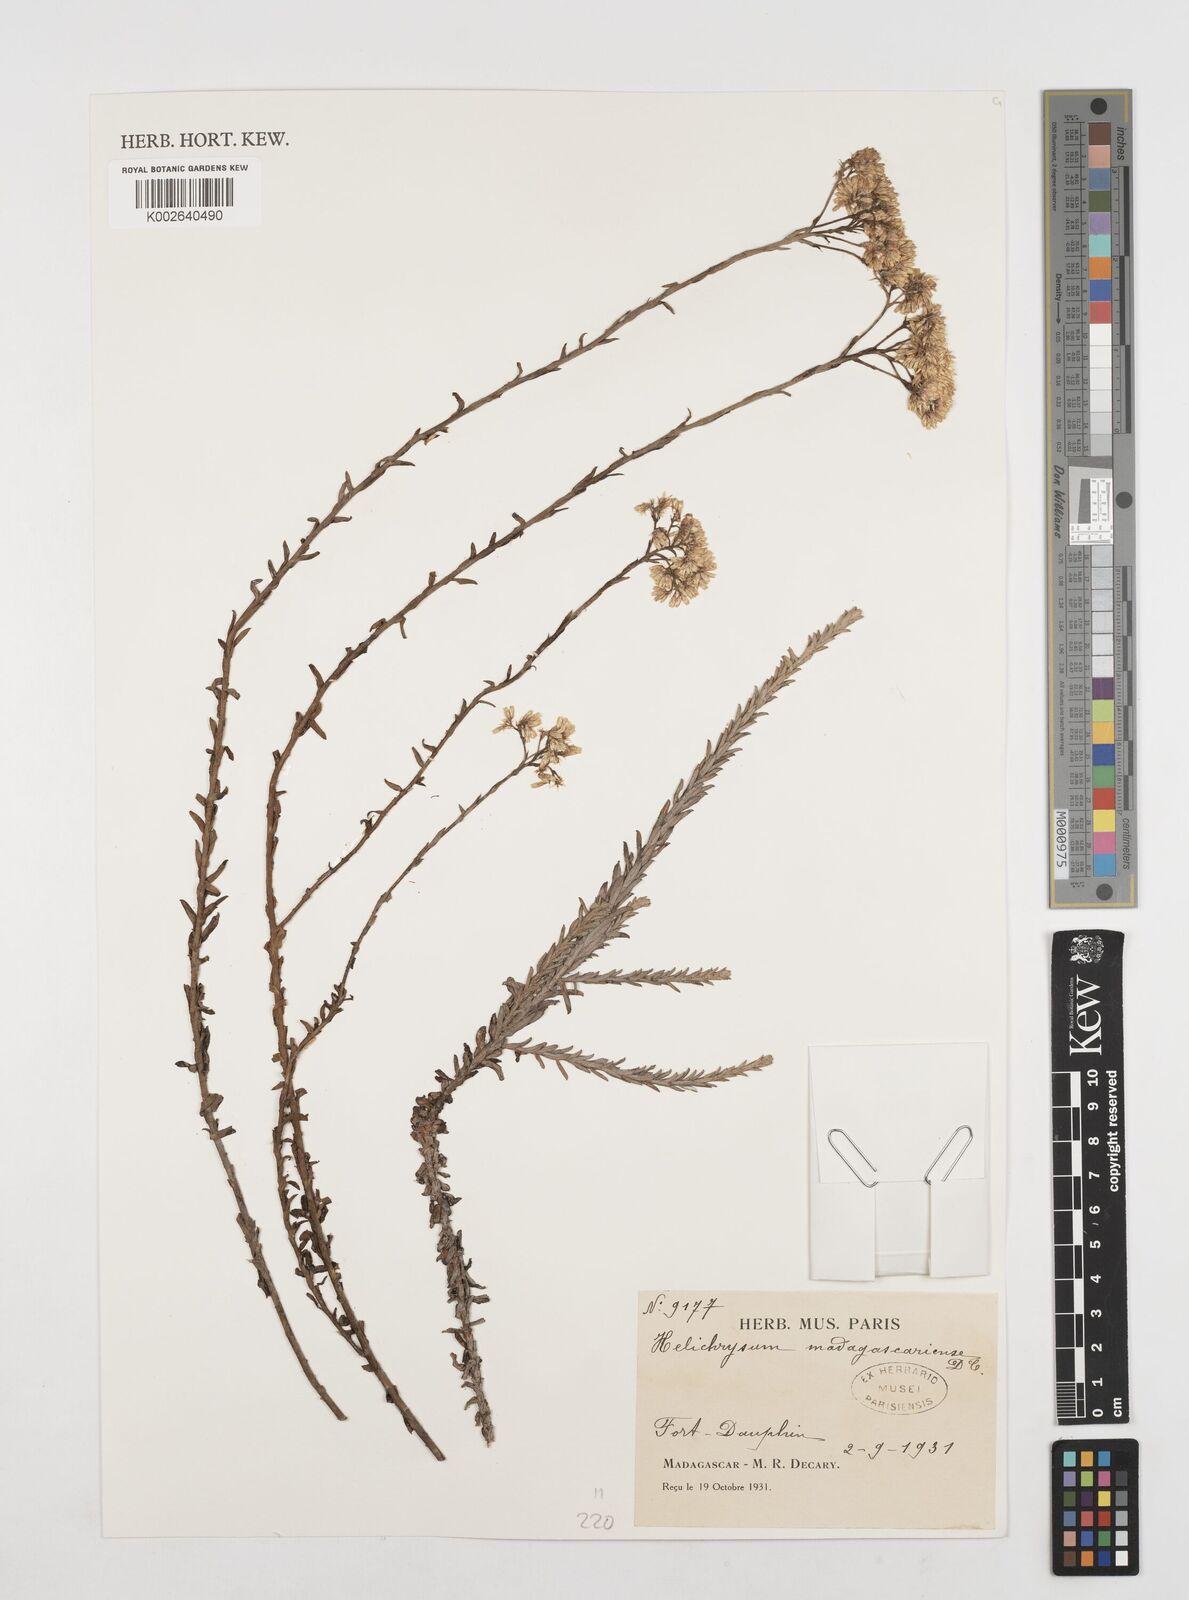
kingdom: Plantae
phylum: Tracheophyta
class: Magnoliopsida
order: Asterales
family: Asteraceae
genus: Helichrysum
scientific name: Helichrysum madagascariense
